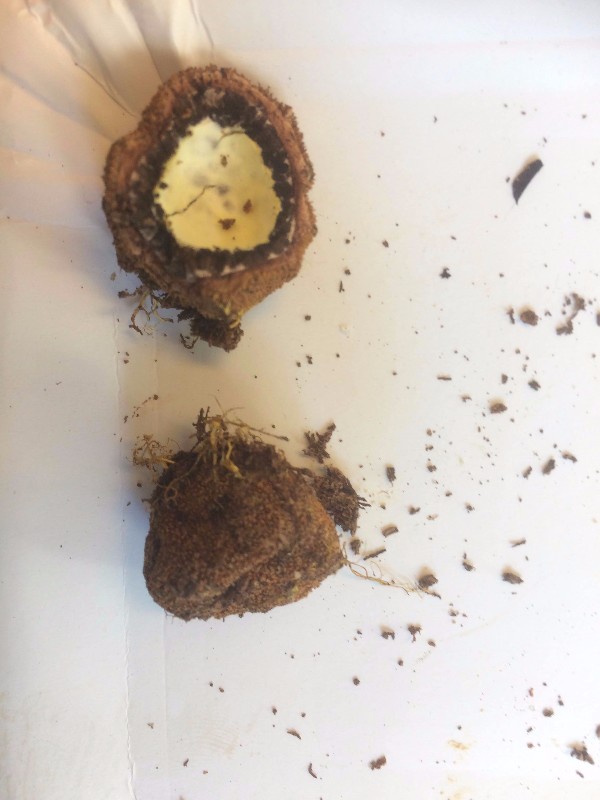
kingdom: Fungi
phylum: Ascomycota
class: Eurotiomycetes
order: Eurotiales
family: Elaphomycetaceae
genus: Elaphomyces
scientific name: Elaphomyces muricatus
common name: vortet hjortetrøffel
